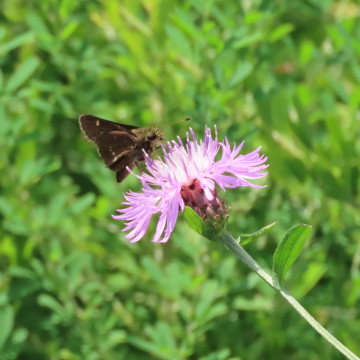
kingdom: Animalia
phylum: Arthropoda
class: Insecta
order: Lepidoptera
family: Hesperiidae
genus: Vernia
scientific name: Vernia verna
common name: Little Glassywing
